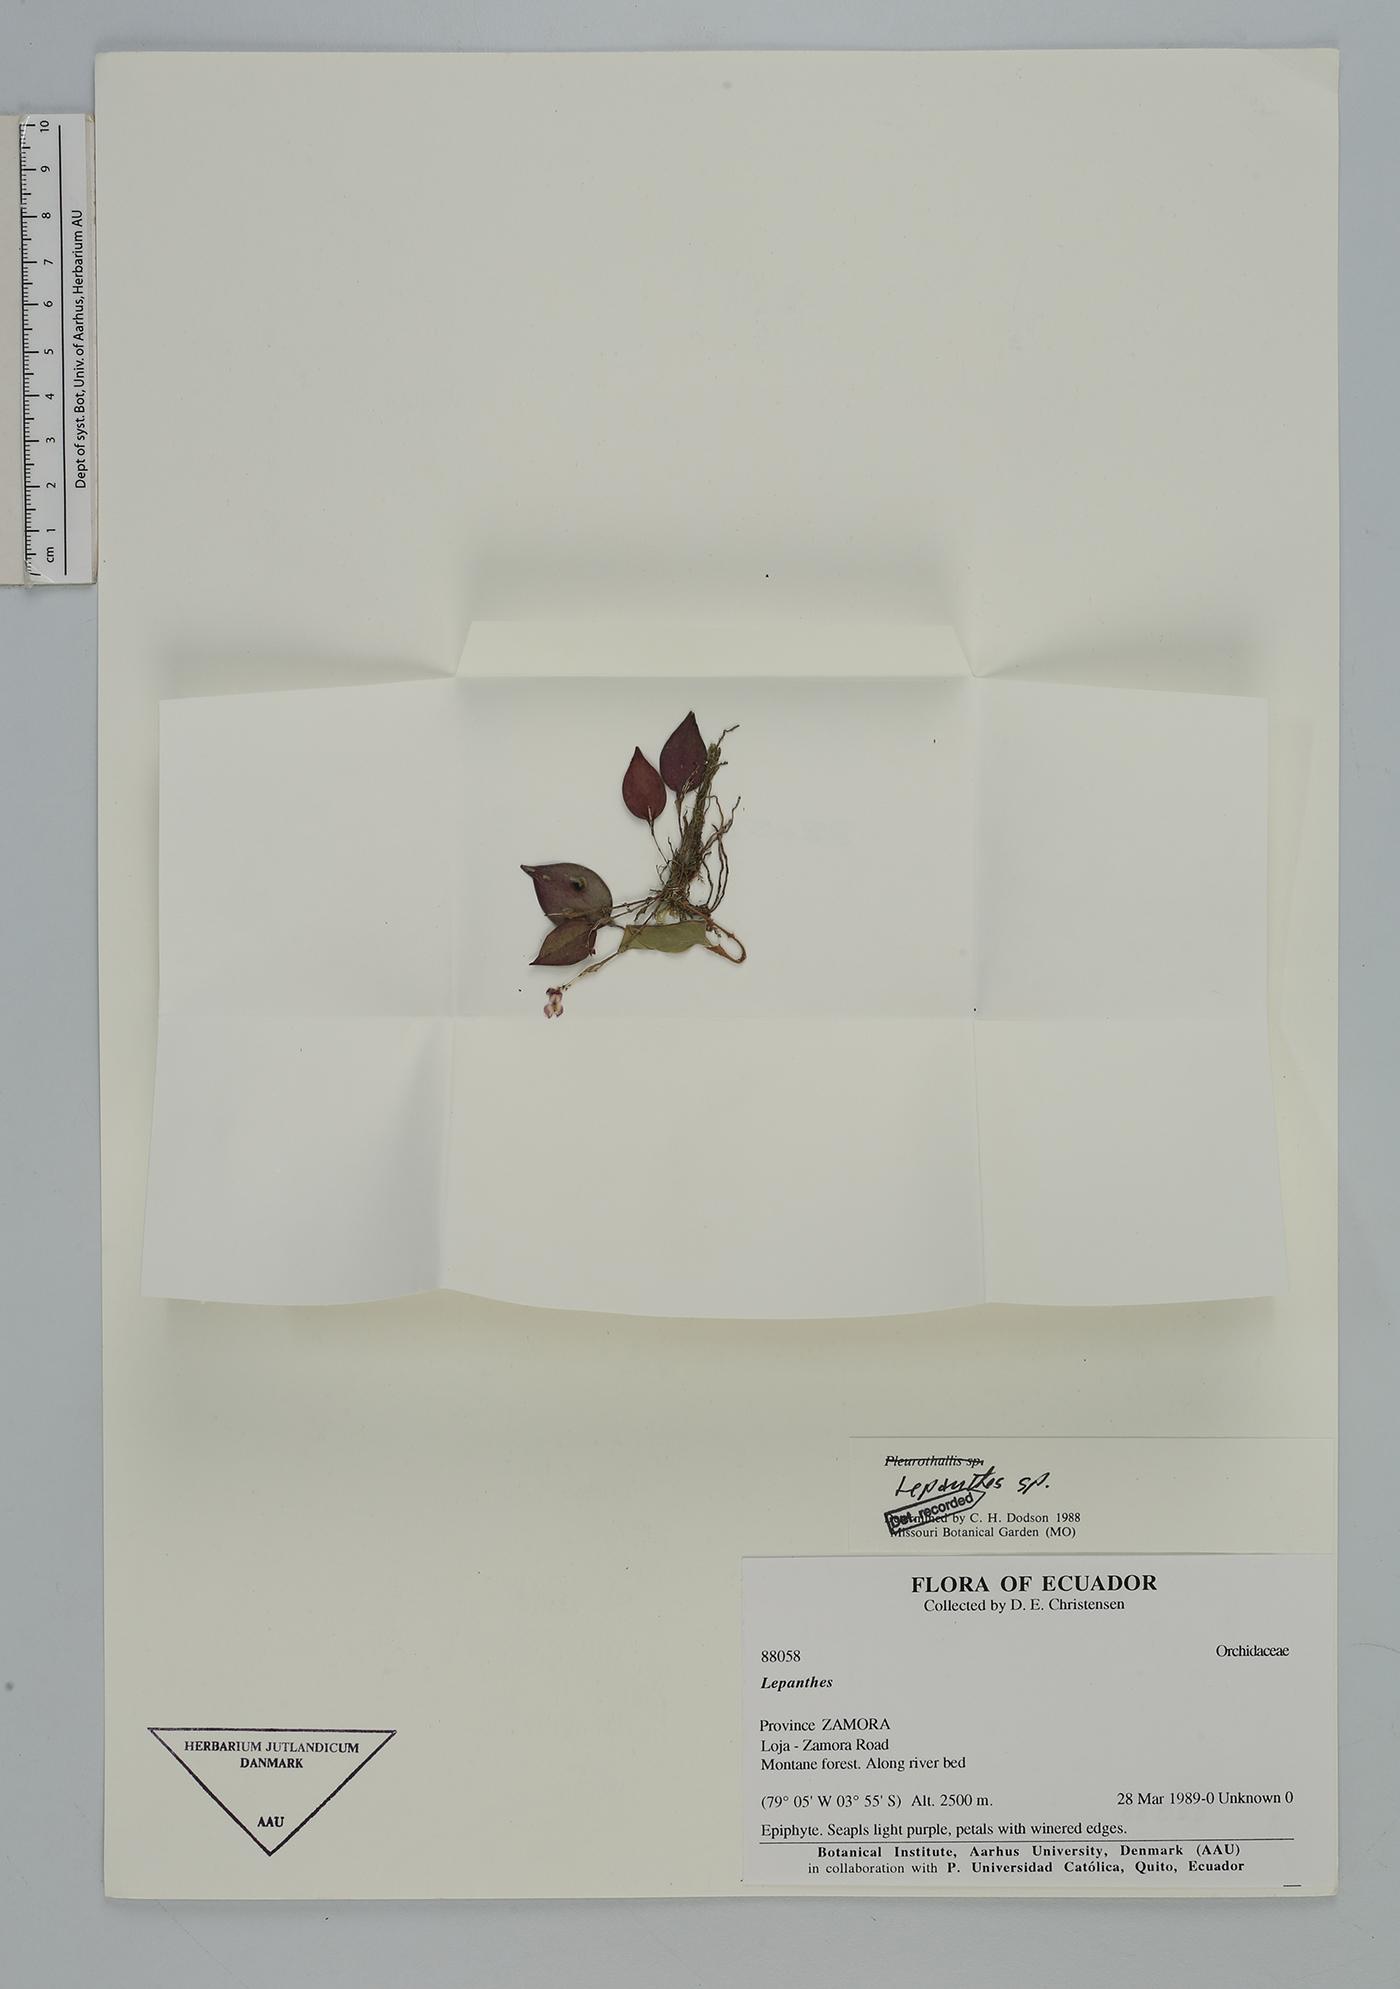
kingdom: Plantae
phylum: Tracheophyta
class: Liliopsida
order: Asparagales
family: Orchidaceae
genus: Lepanthes
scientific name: Lepanthes
